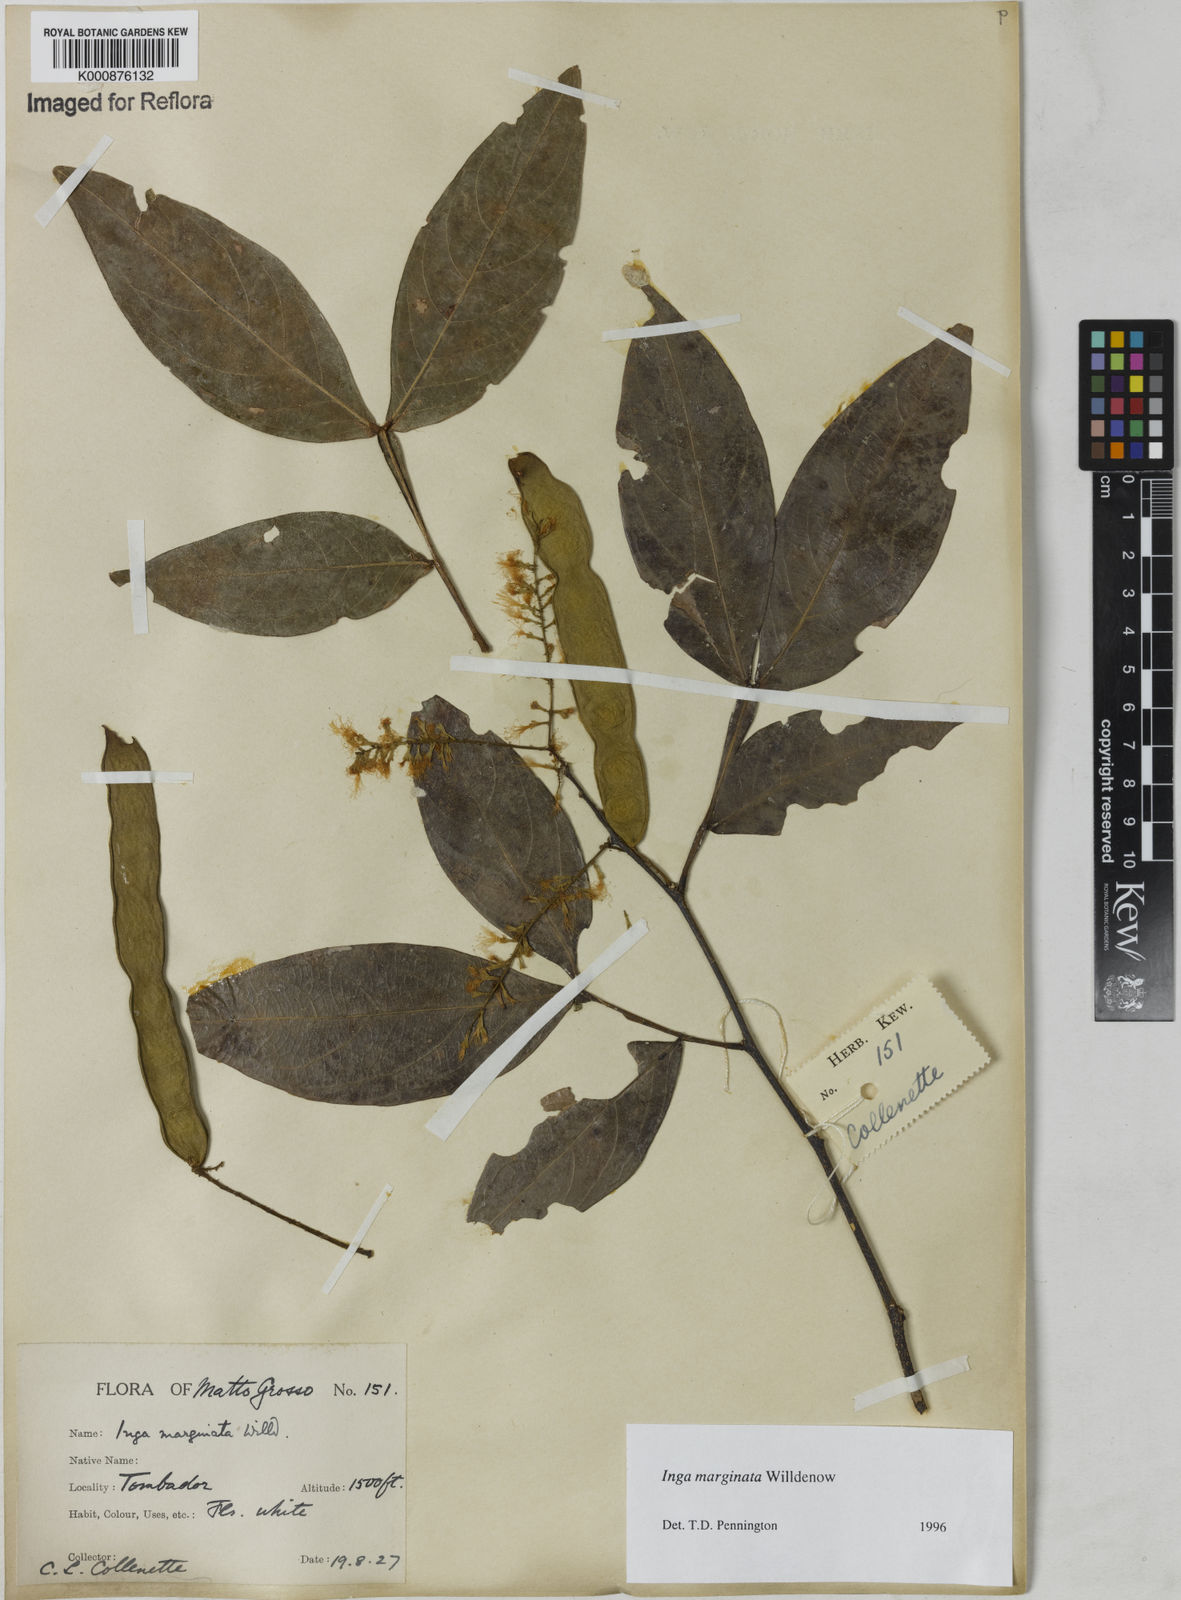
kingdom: Plantae
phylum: Tracheophyta
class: Magnoliopsida
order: Fabales
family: Fabaceae
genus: Inga
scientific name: Inga marginata
